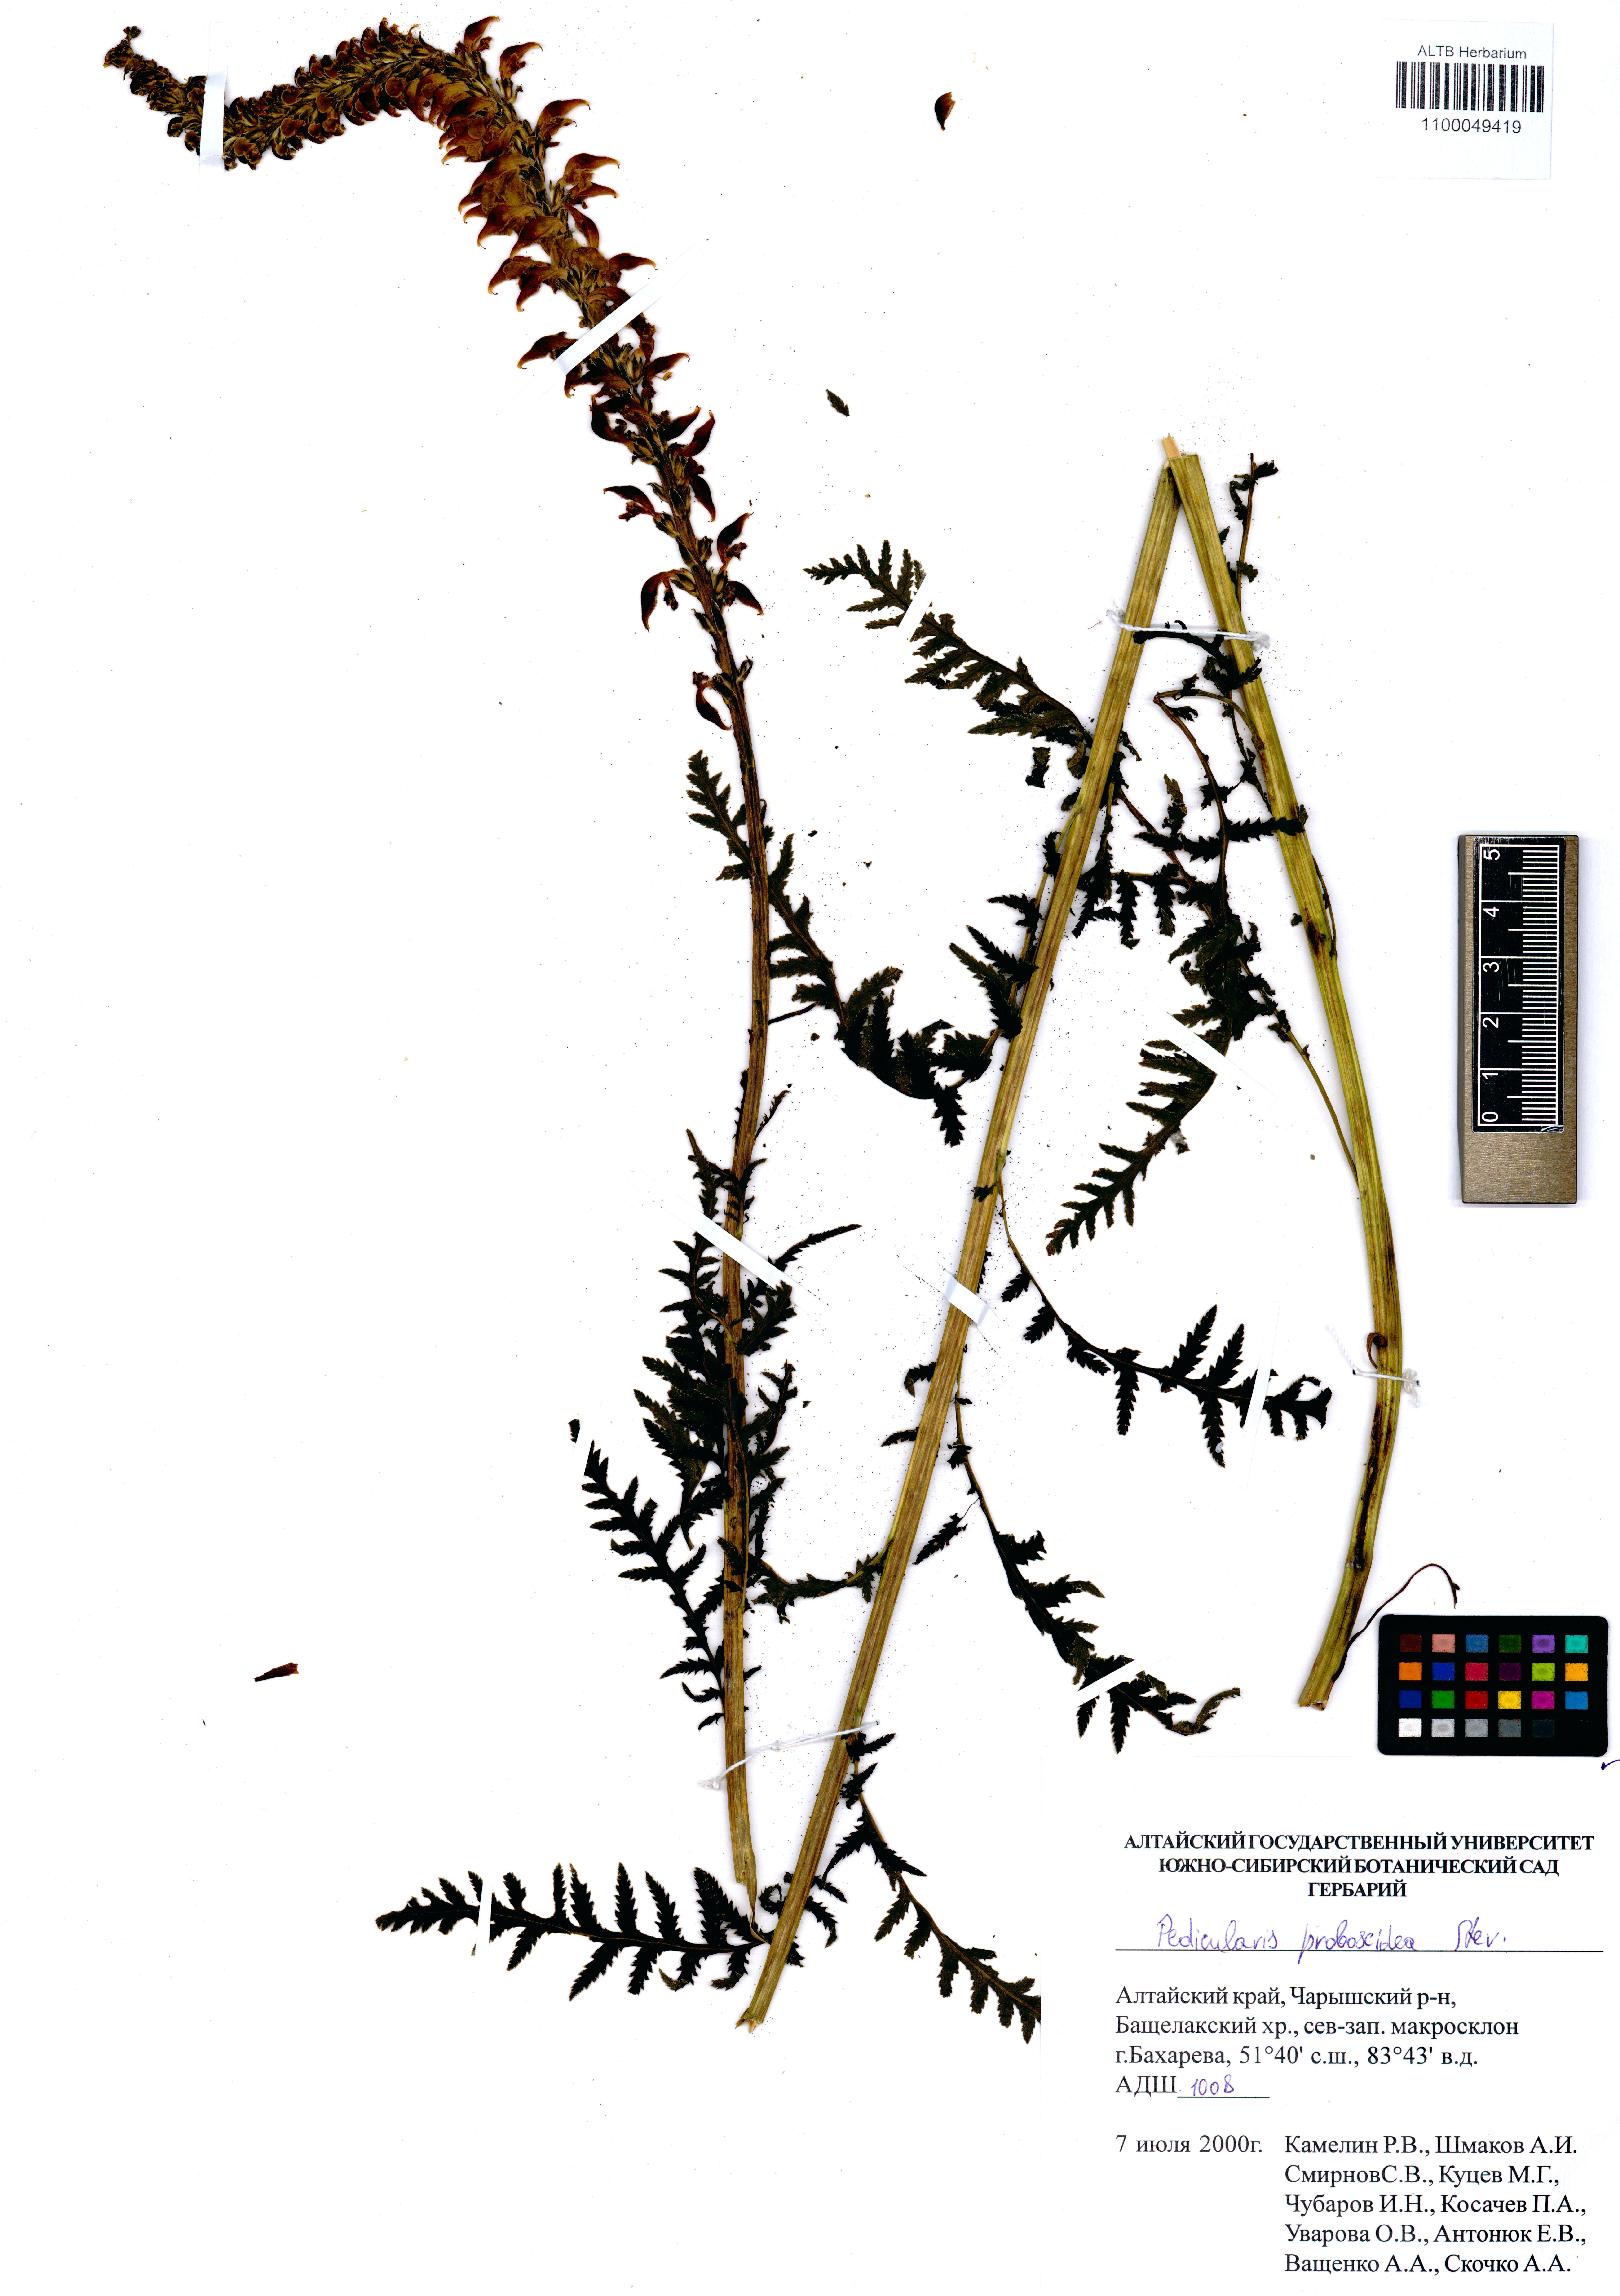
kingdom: Plantae
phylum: Tracheophyta
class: Magnoliopsida
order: Lamiales
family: Orobanchaceae
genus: Pedicularis
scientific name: Pedicularis proboscidea
